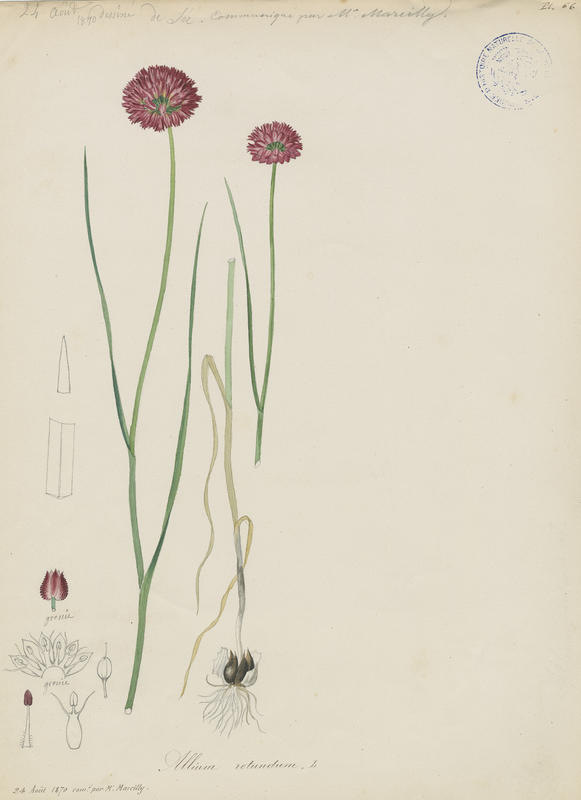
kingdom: Plantae
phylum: Tracheophyta
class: Liliopsida
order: Asparagales
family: Amaryllidaceae
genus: Allium
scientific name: Allium rotundum
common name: Sand leek
